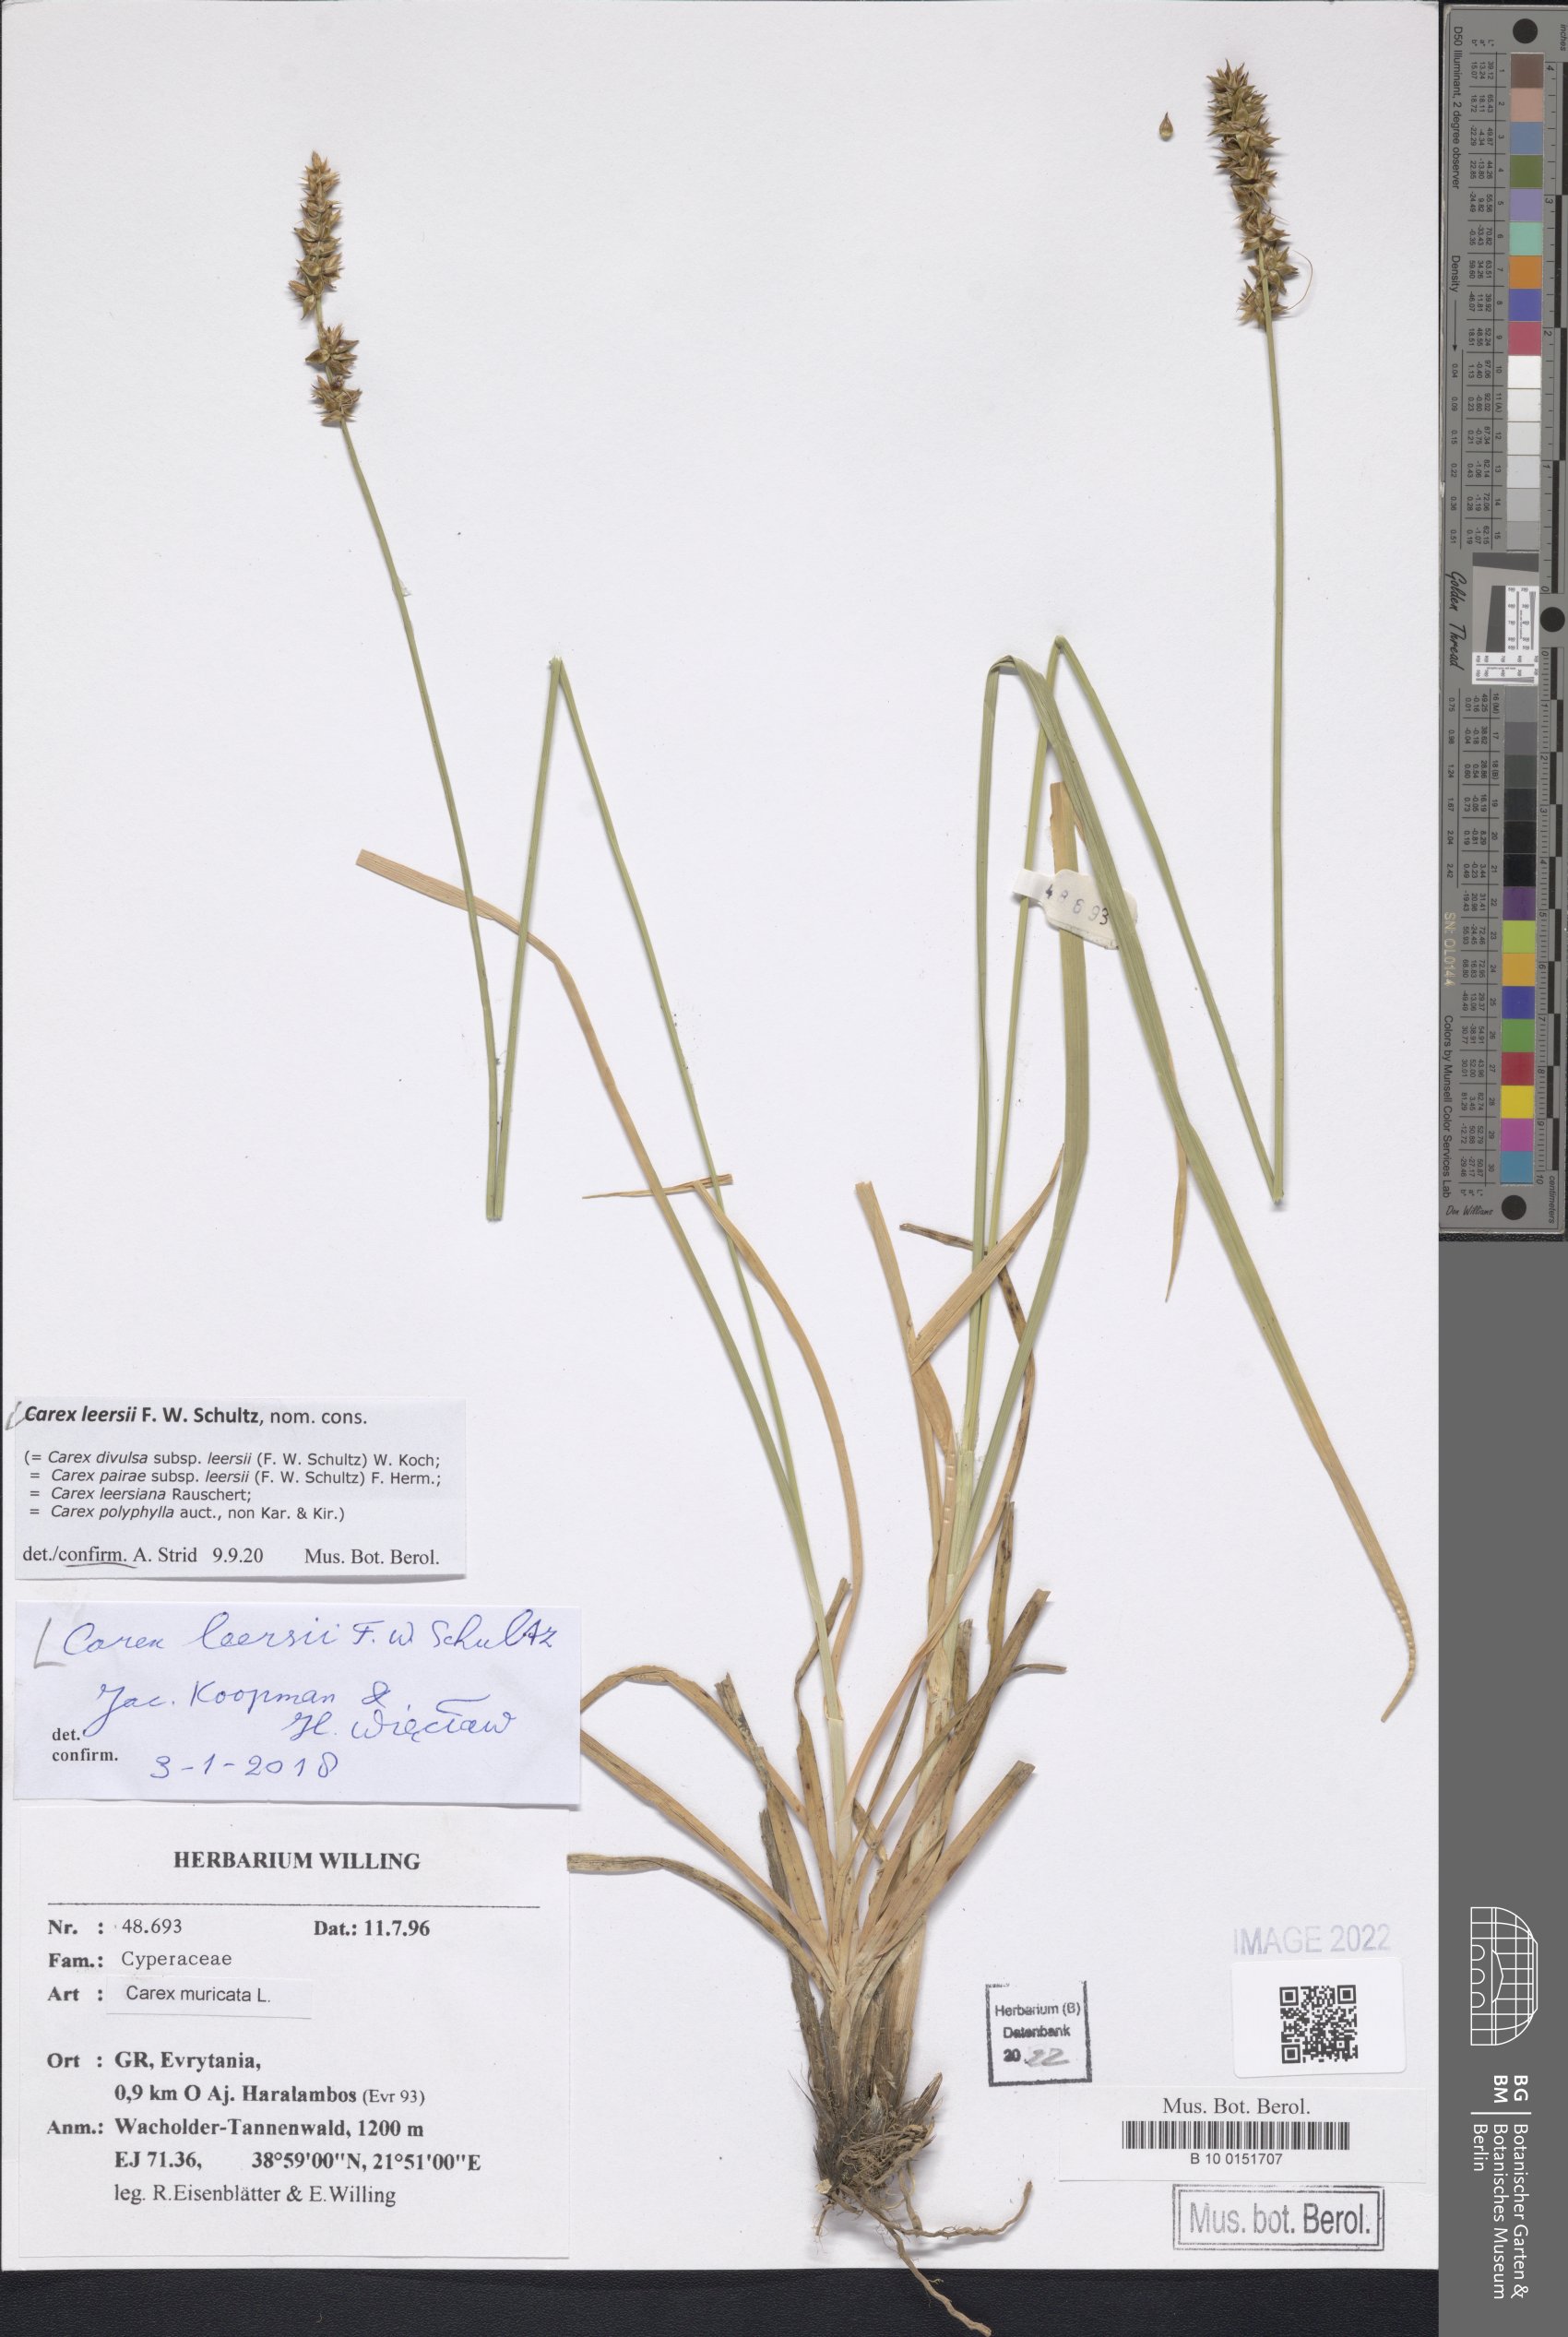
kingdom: Plantae
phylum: Tracheophyta
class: Liliopsida
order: Poales
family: Cyperaceae
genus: Carex
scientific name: Carex leersii
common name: Leers' sedge
